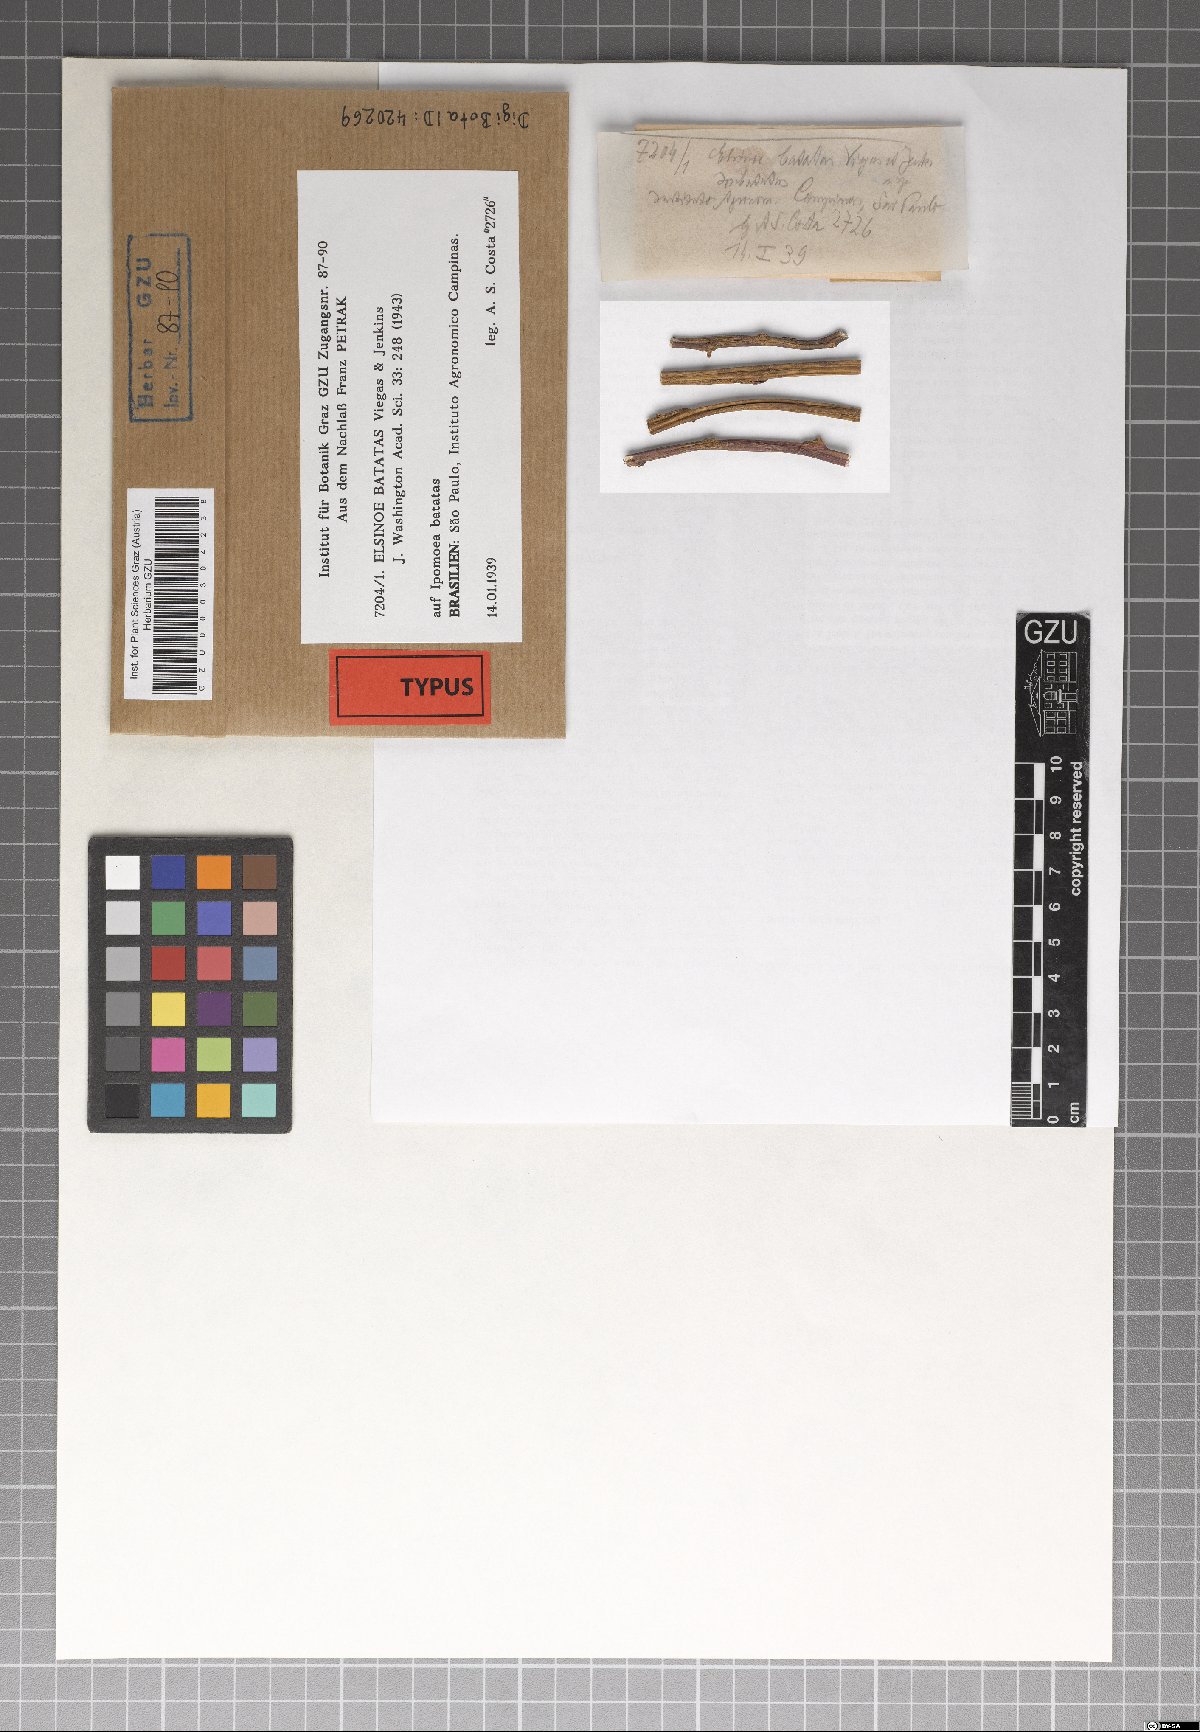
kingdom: Fungi
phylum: Ascomycota
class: Dothideomycetes
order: Myriangiales
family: Elsinoaceae
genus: Elsinoe
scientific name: Elsinoe batatas
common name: Leaf and stem scab
